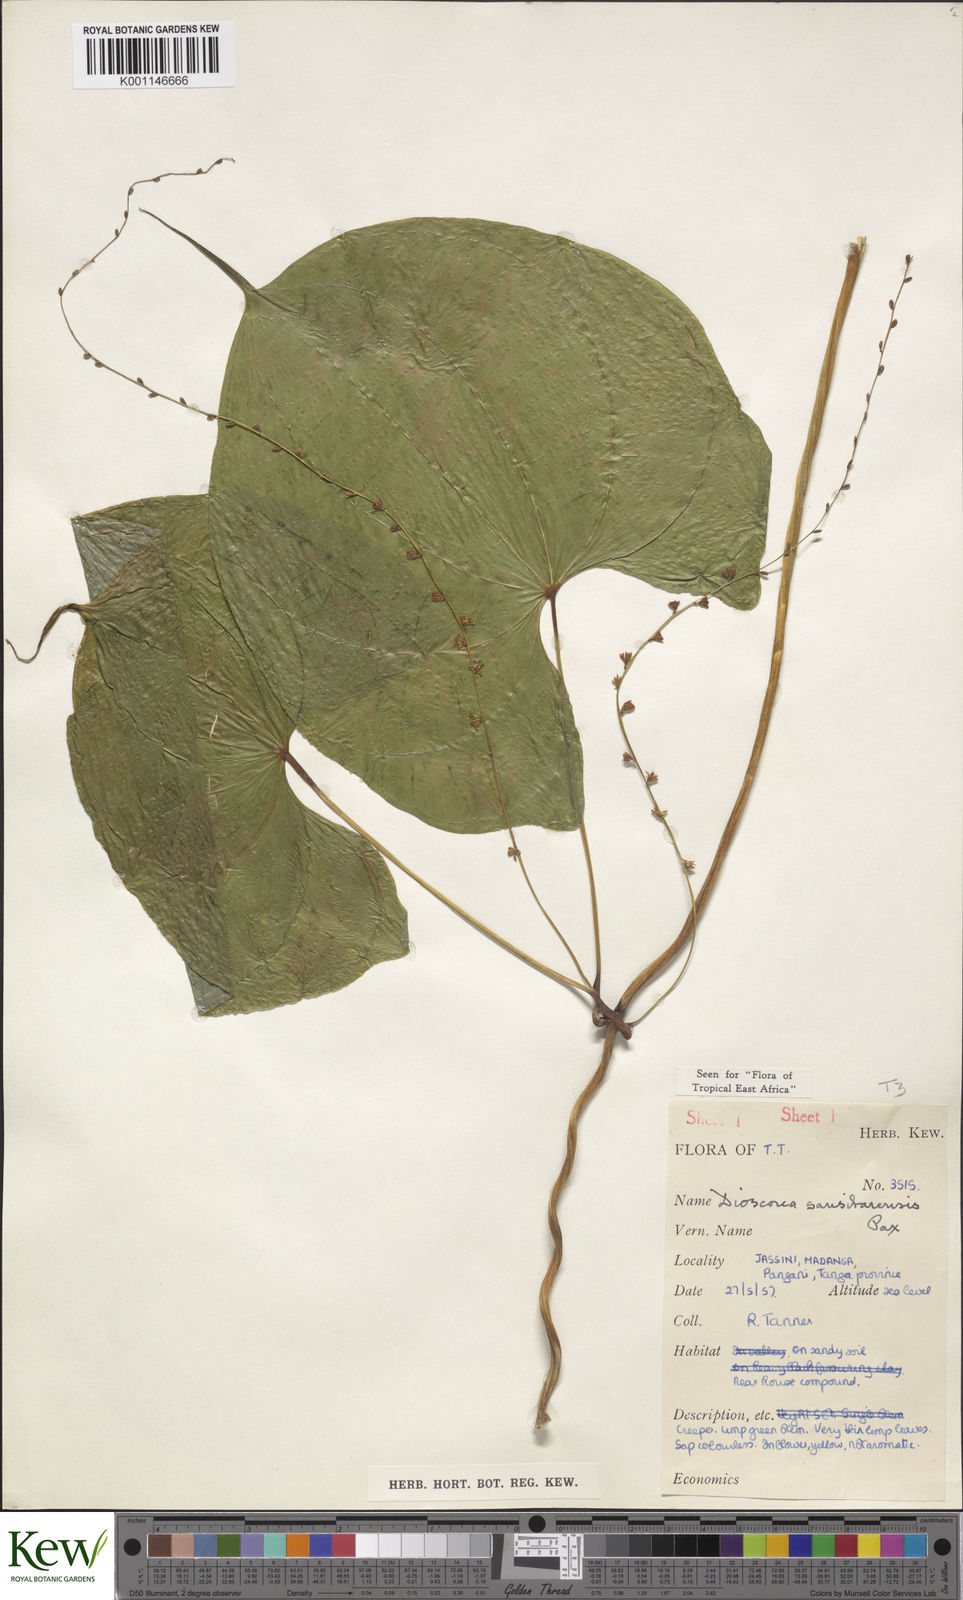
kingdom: Plantae
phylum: Tracheophyta
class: Liliopsida
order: Dioscoreales
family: Dioscoreaceae
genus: Dioscorea
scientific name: Dioscorea sansibarensis
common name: Zanzibar yam
